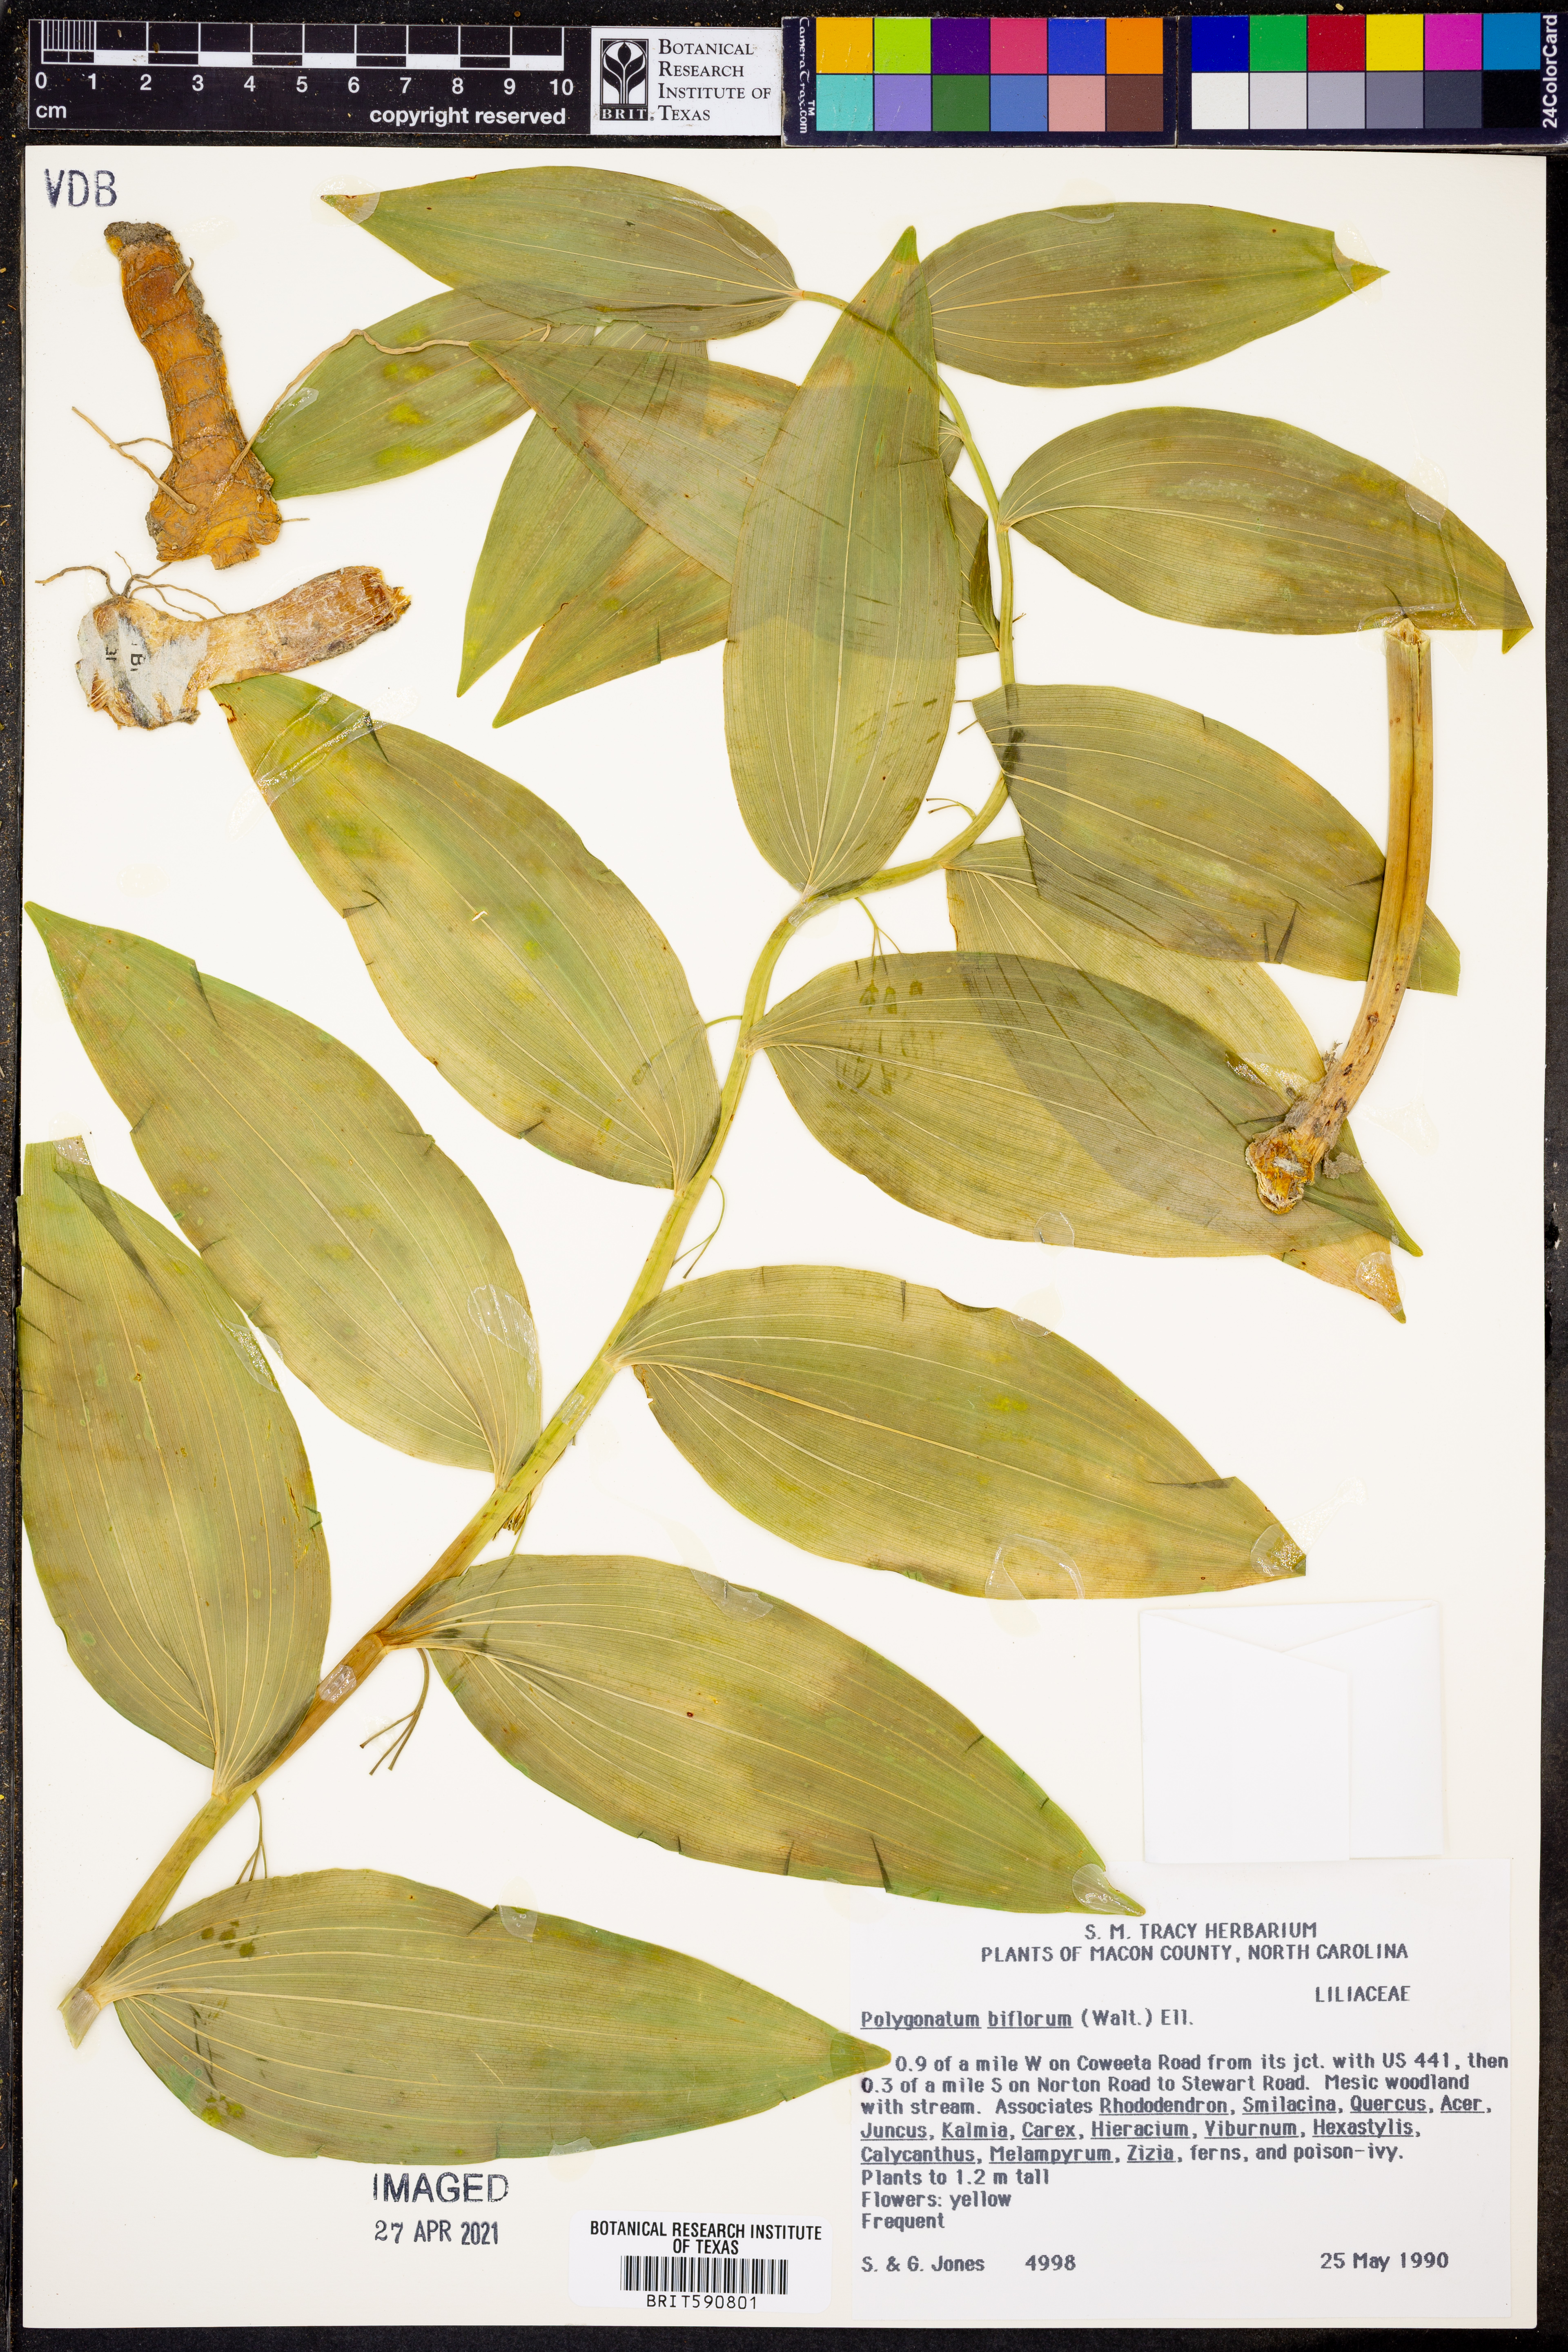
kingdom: Plantae
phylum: Tracheophyta
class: Liliopsida
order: Asparagales
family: Asparagaceae
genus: Polygonatum
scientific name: Polygonatum biflorum
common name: American solomon's-seal
